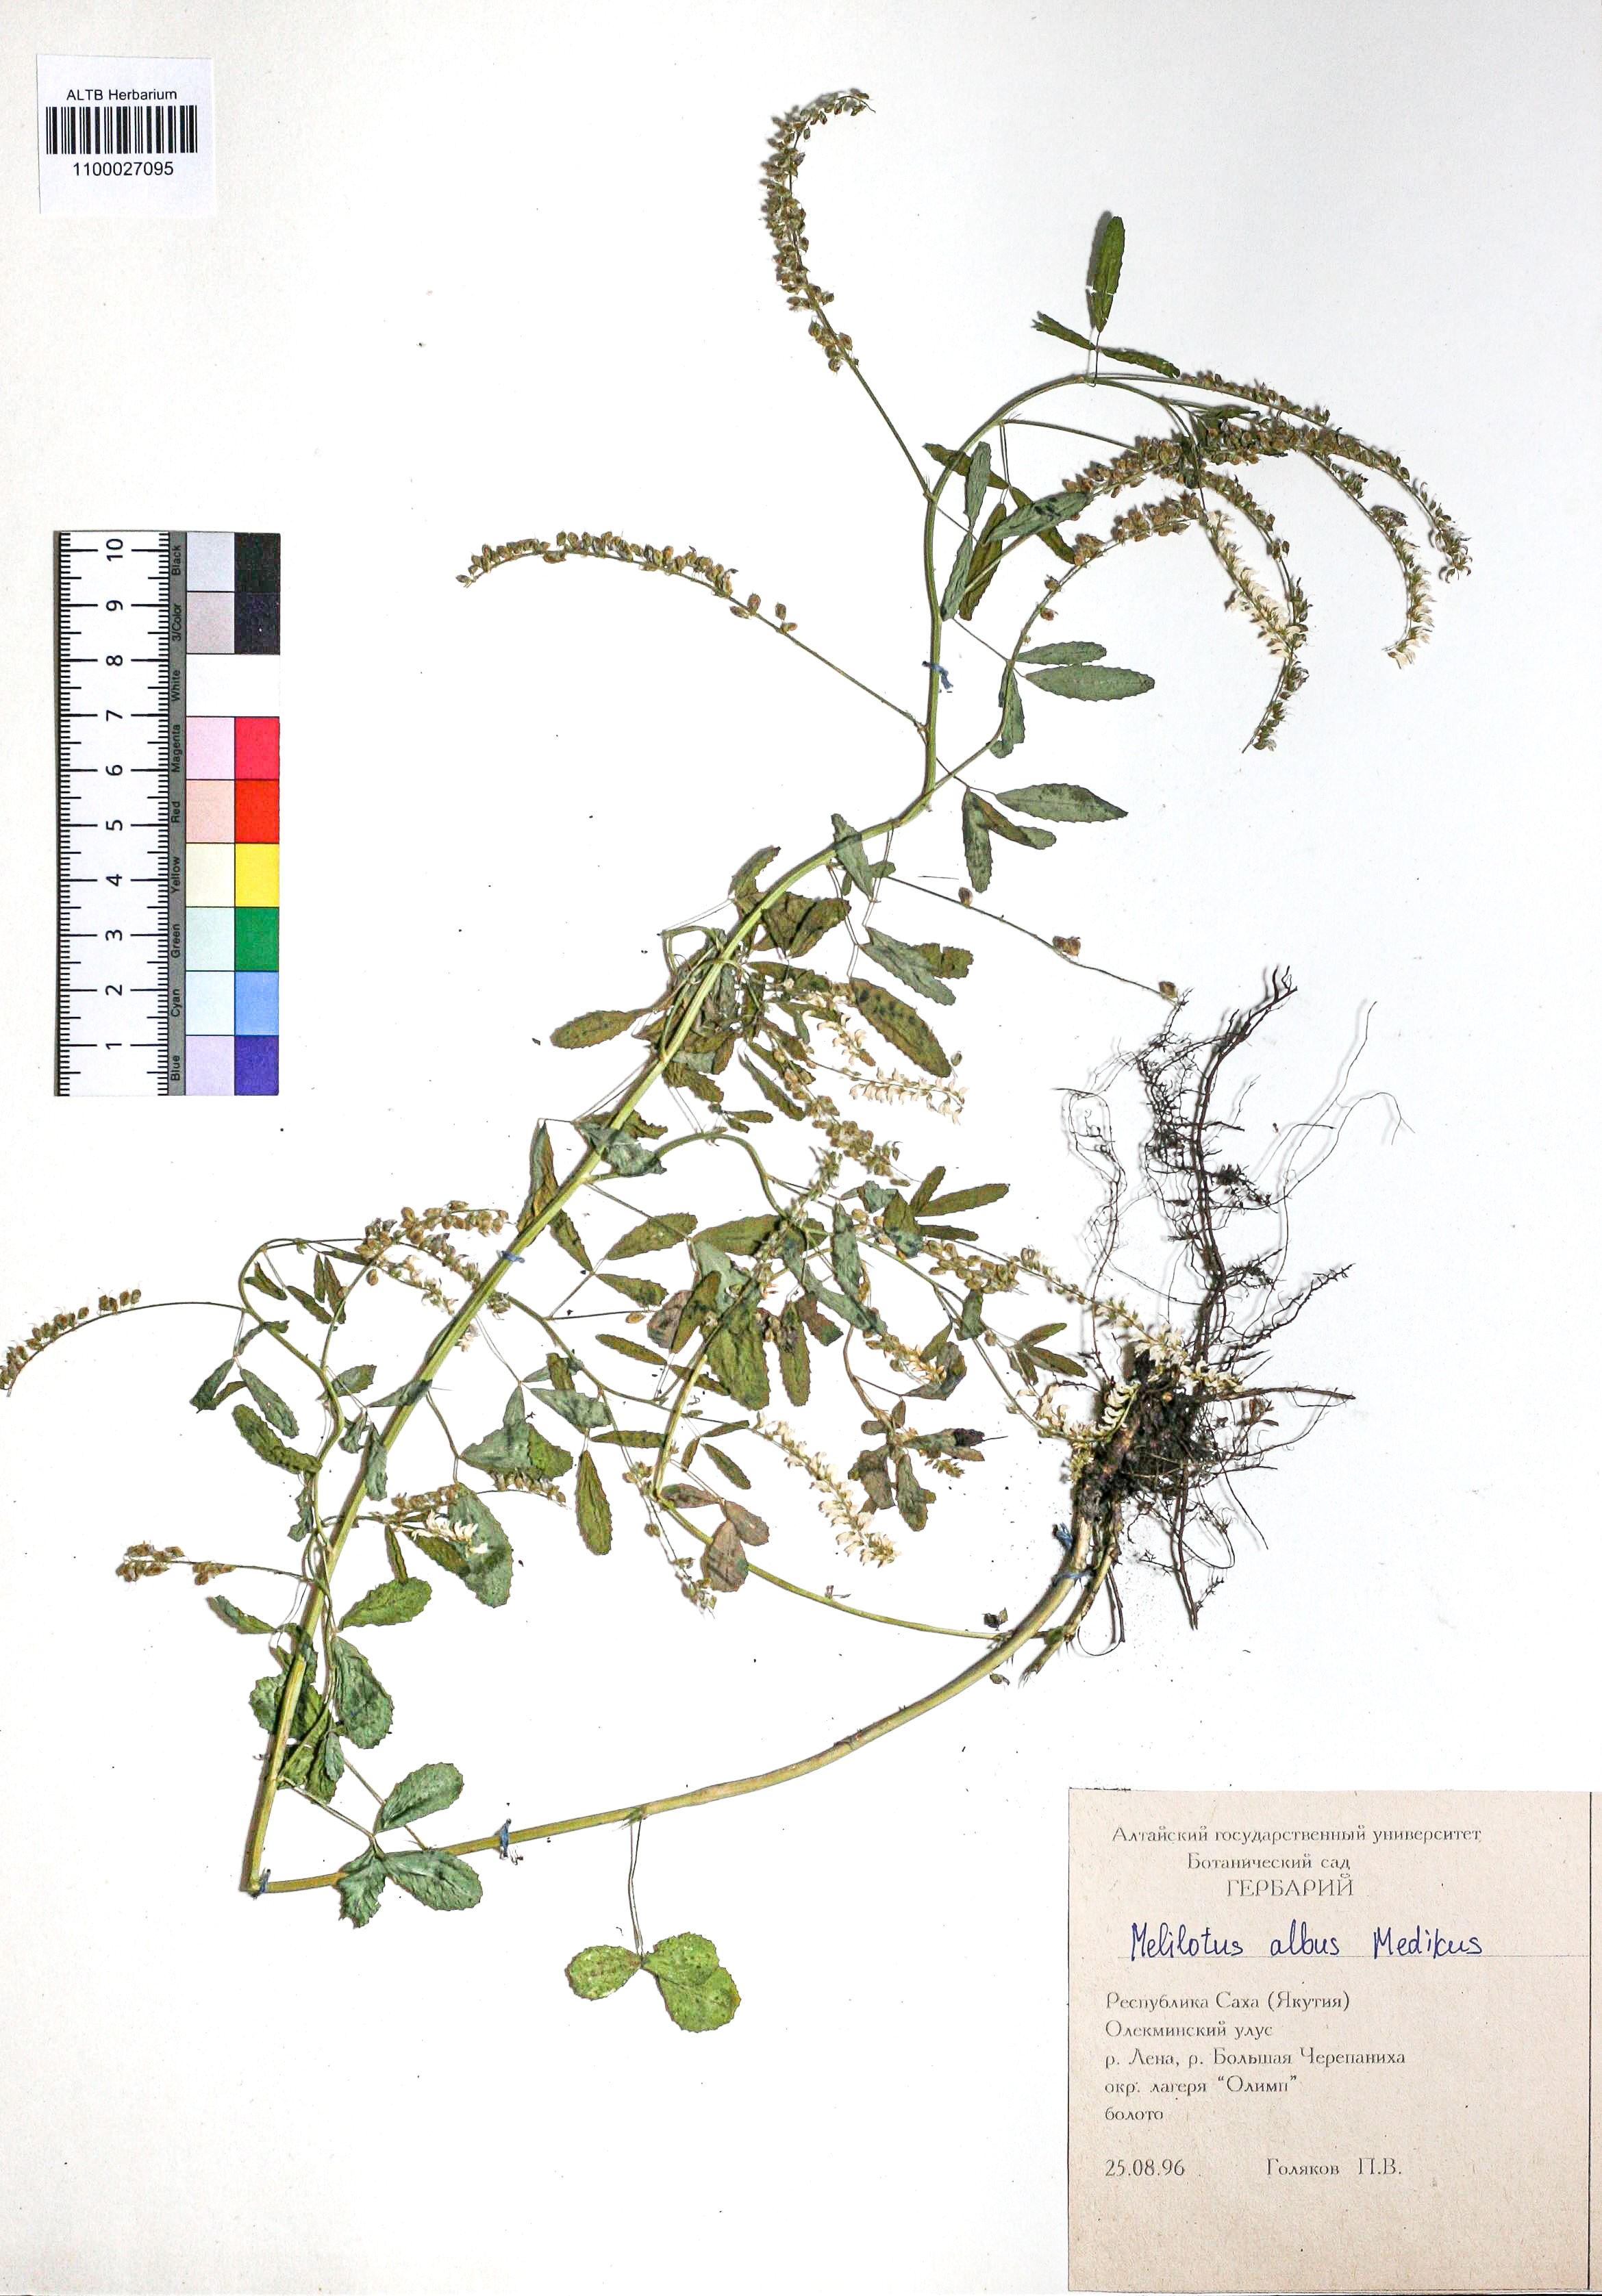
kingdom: Plantae
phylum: Tracheophyta
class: Magnoliopsida
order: Fabales
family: Fabaceae
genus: Melilotus
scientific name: Melilotus albus
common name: White melilot
